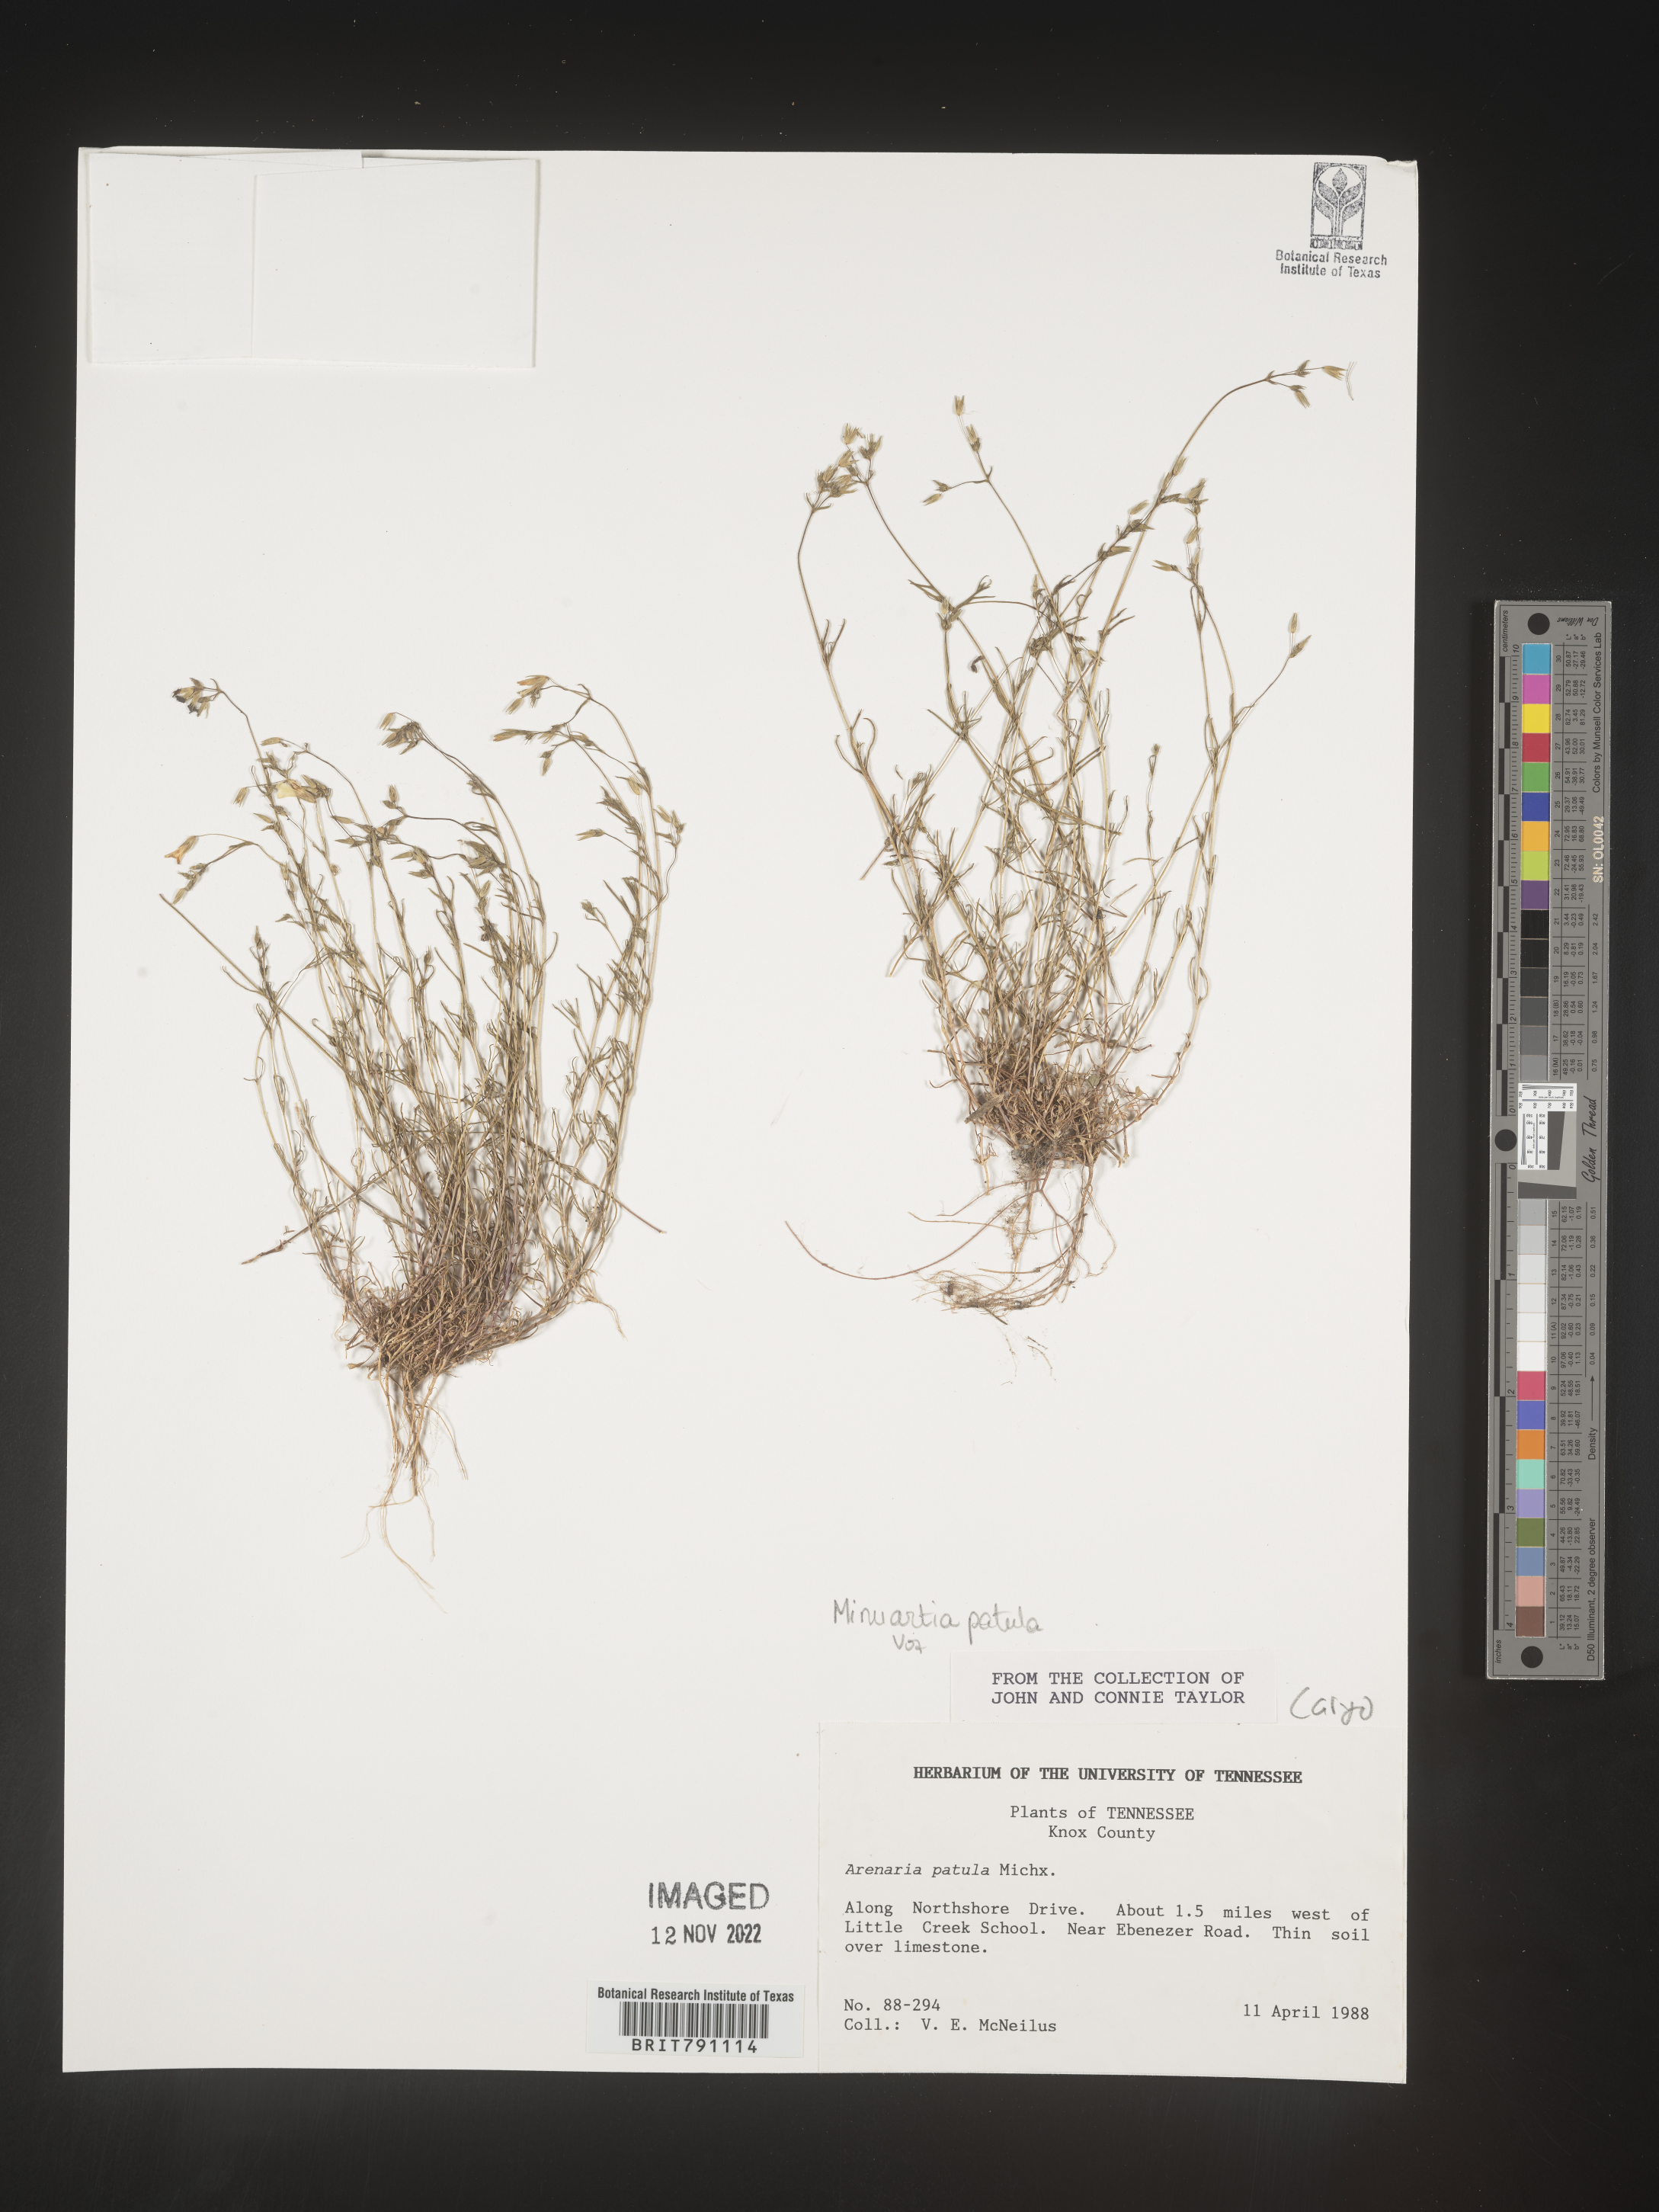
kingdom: Plantae
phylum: Tracheophyta
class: Magnoliopsida
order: Caryophyllales
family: Caryophyllaceae
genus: Mononeuria
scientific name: Mononeuria patula
